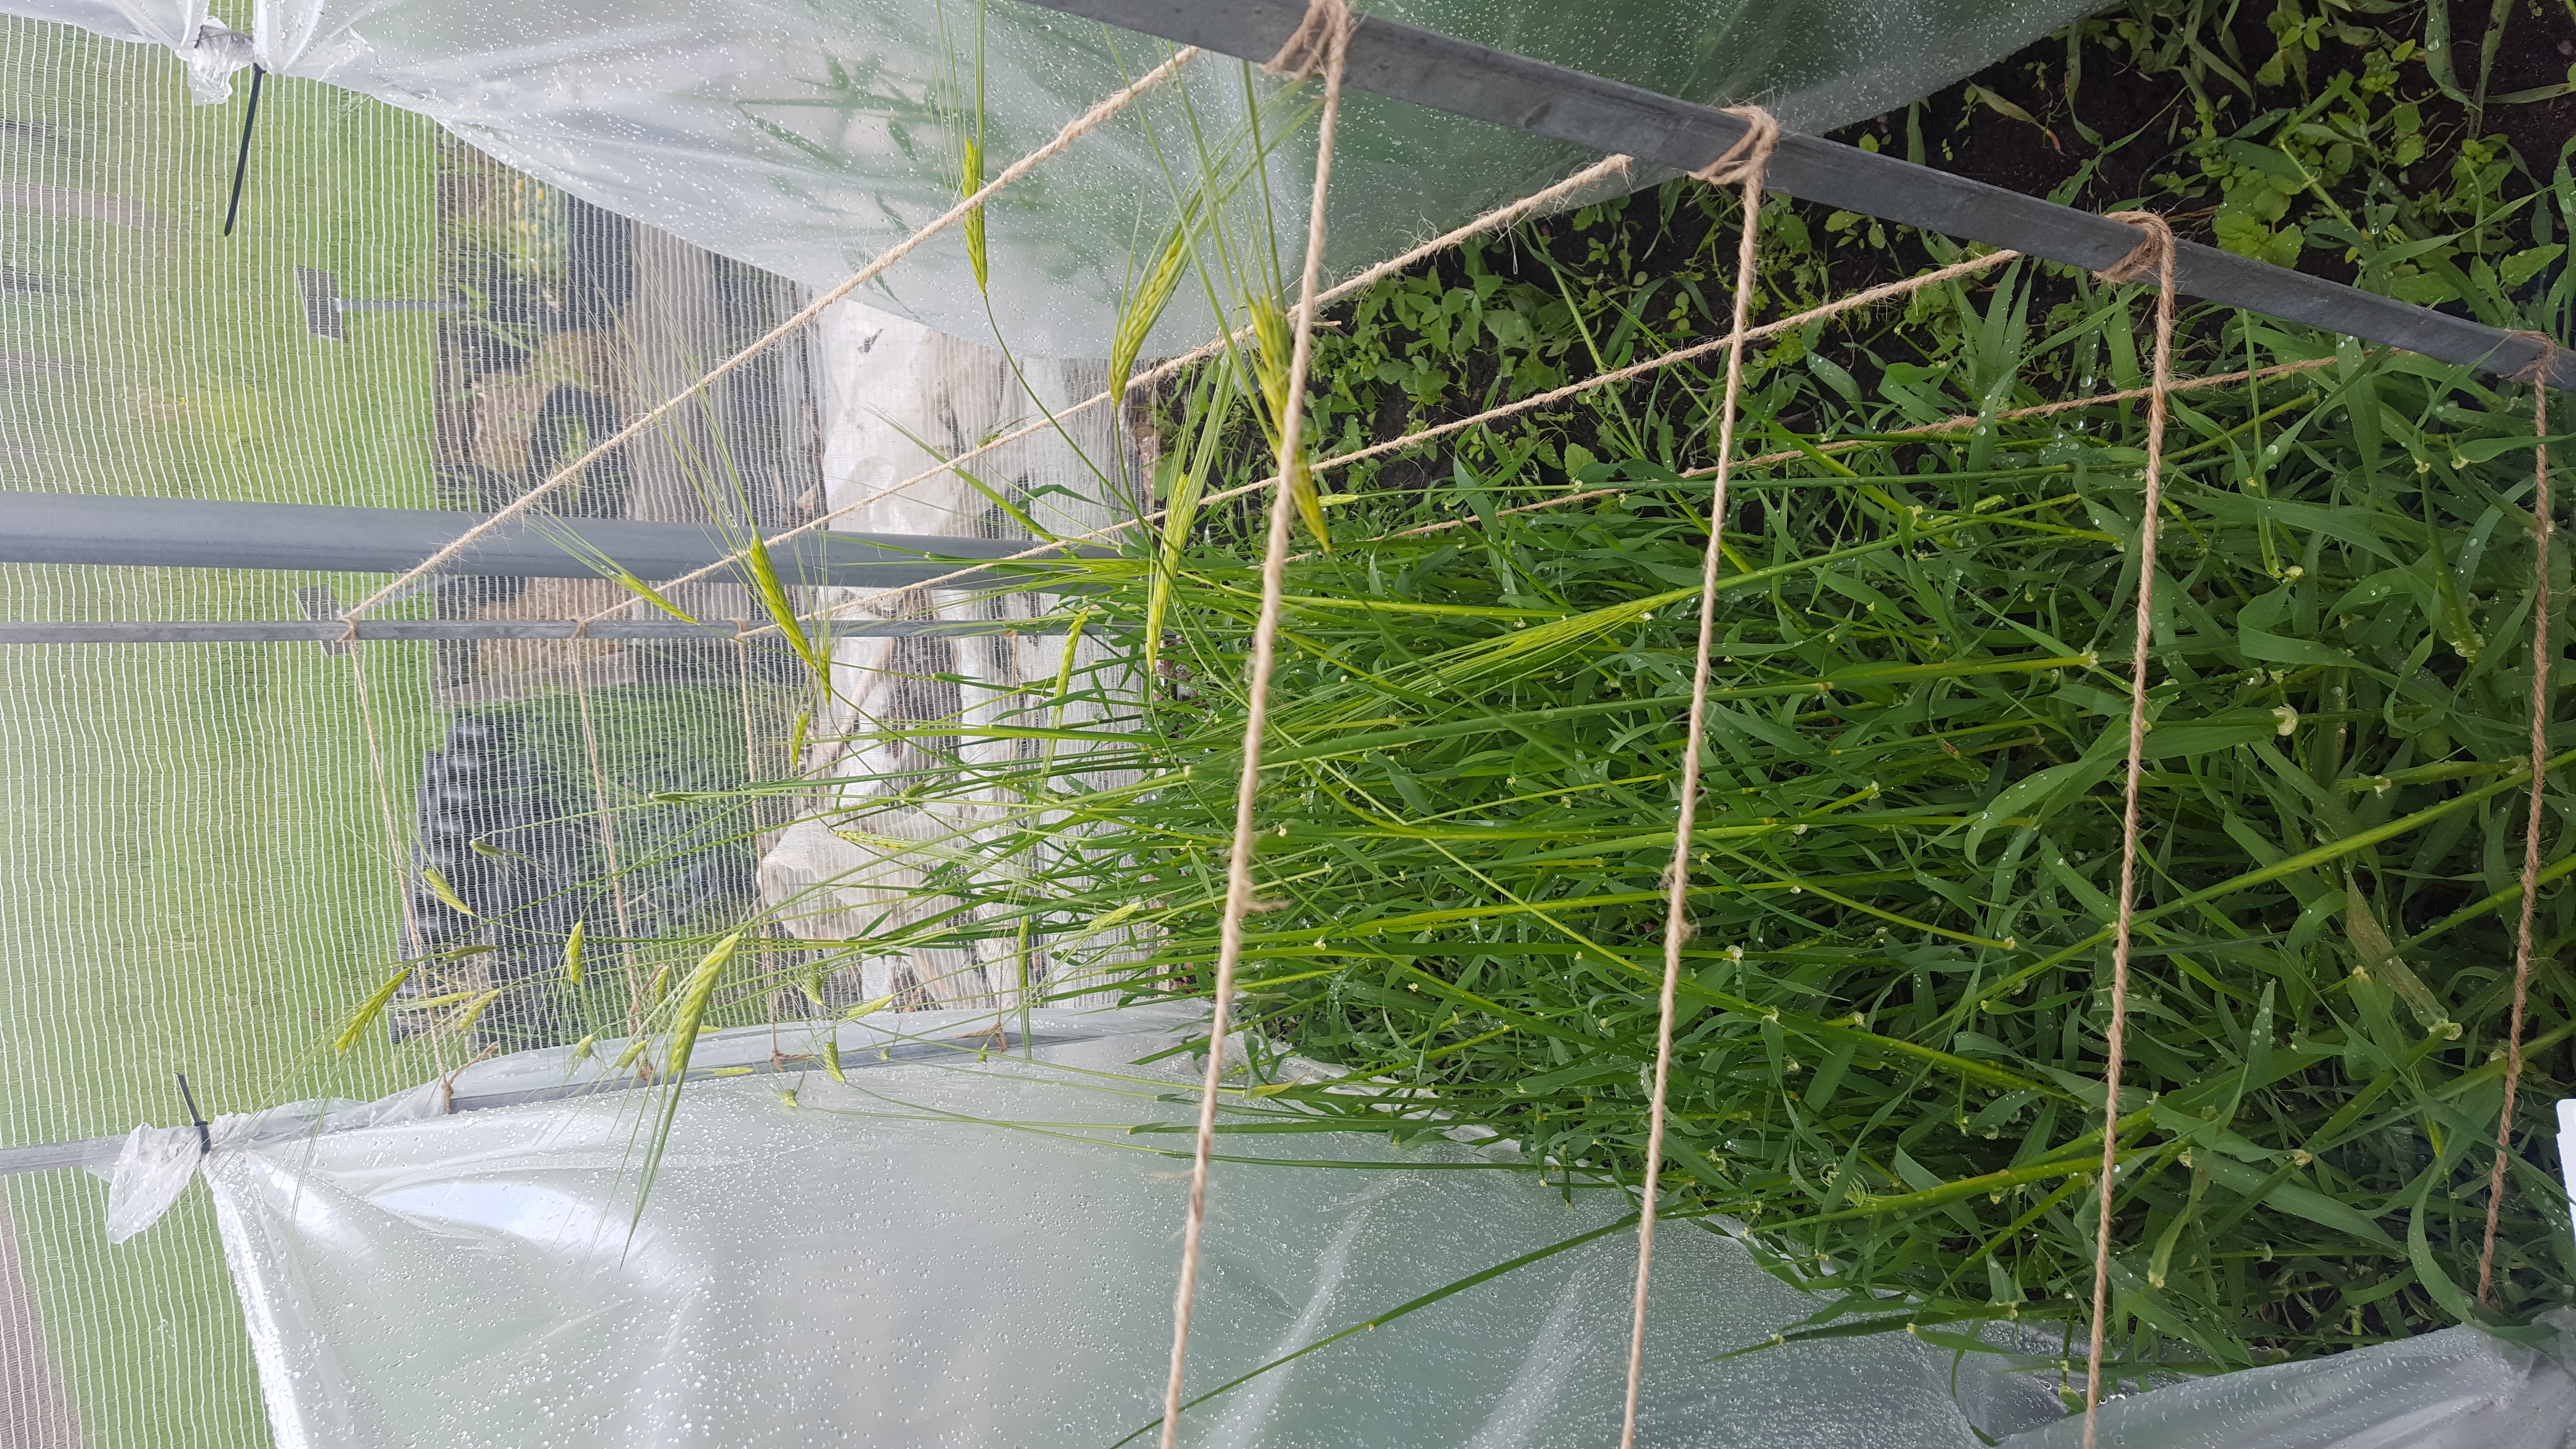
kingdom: Plantae
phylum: Tracheophyta
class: Liliopsida
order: Poales
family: Poaceae
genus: Hordeum
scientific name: Hordeum spontaneum
